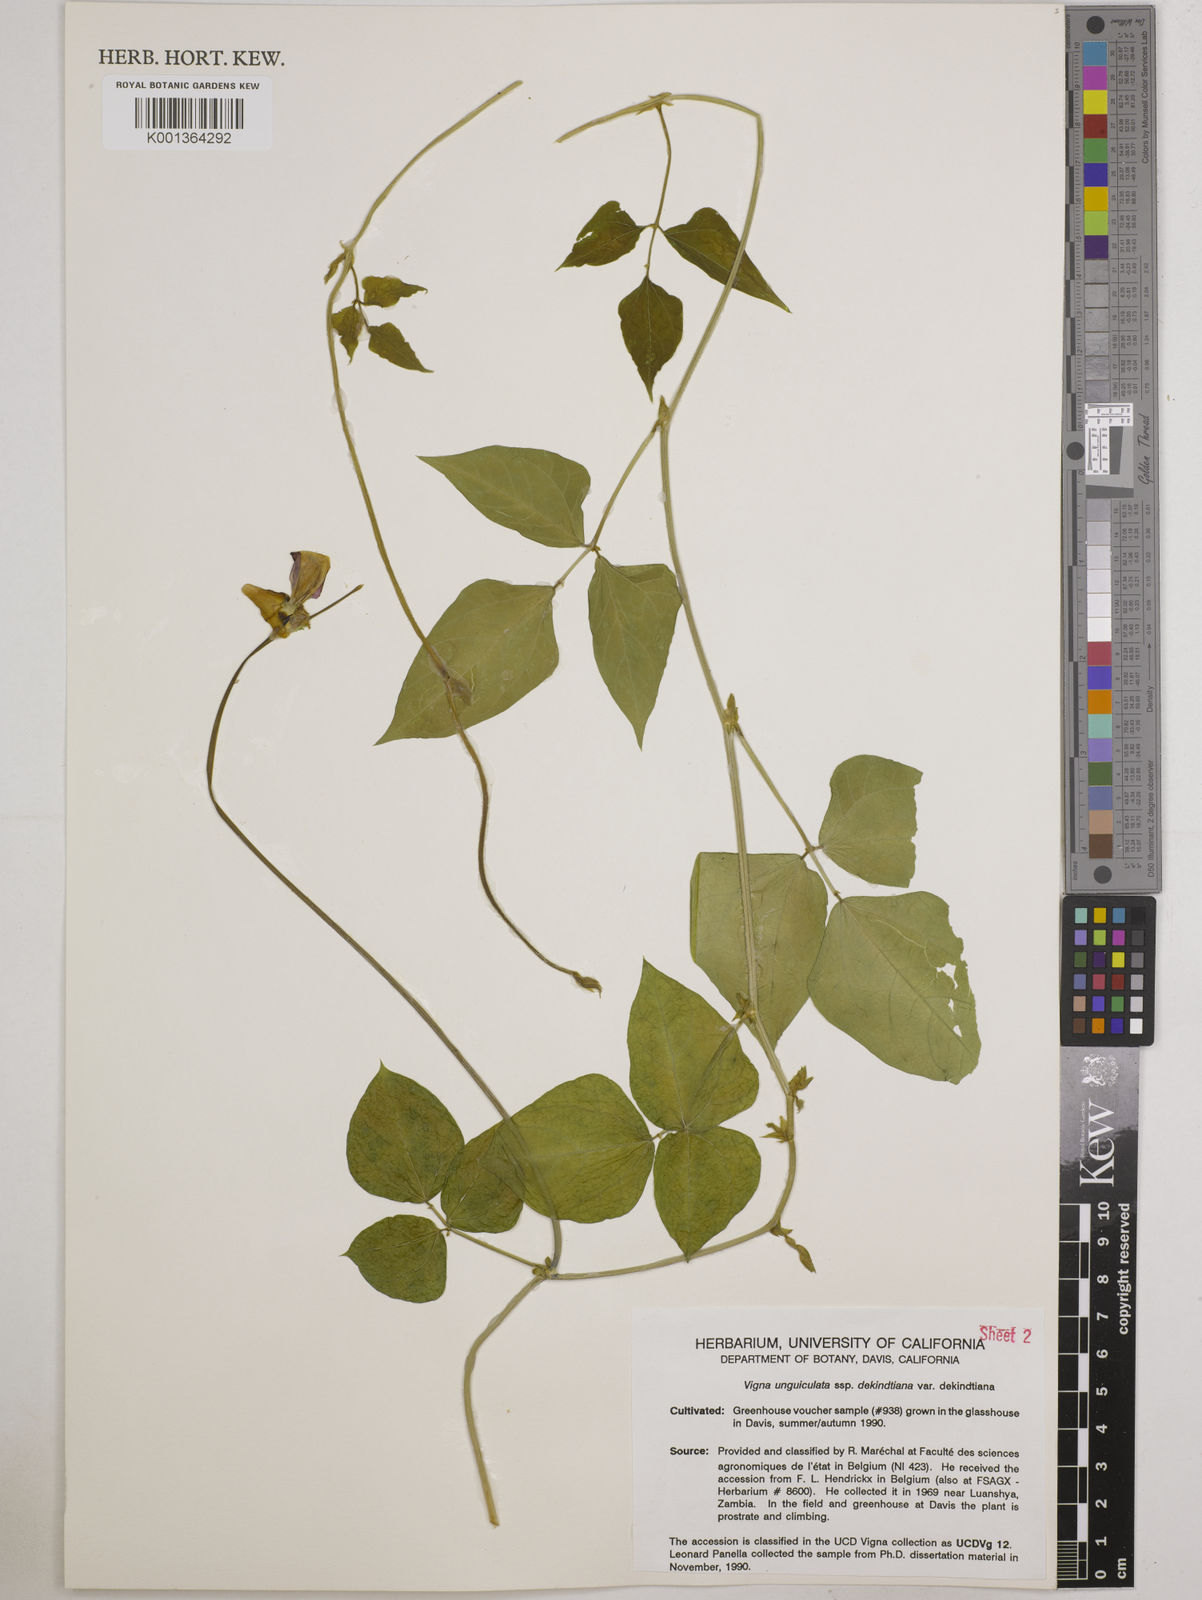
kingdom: Plantae
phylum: Tracheophyta
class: Magnoliopsida
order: Fabales
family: Fabaceae
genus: Vigna
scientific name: Vigna
